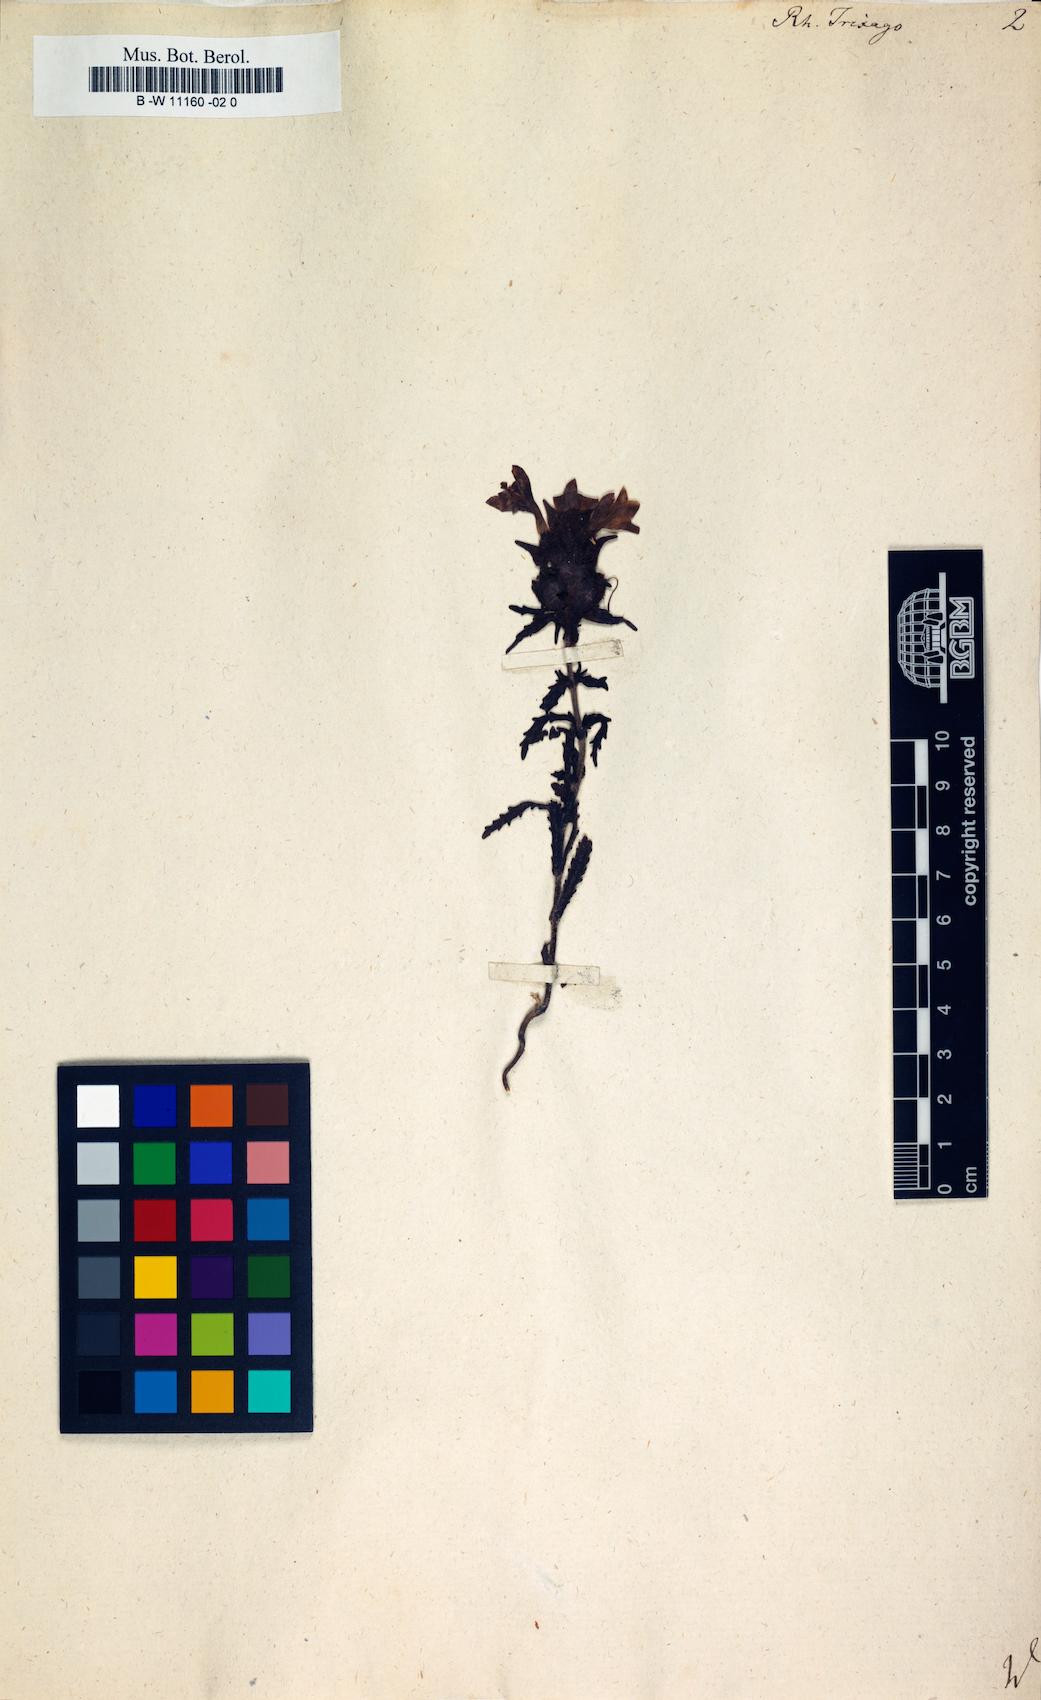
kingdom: Plantae
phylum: Tracheophyta
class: Magnoliopsida
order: Lamiales
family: Orobanchaceae
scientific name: Orobanchaceae
